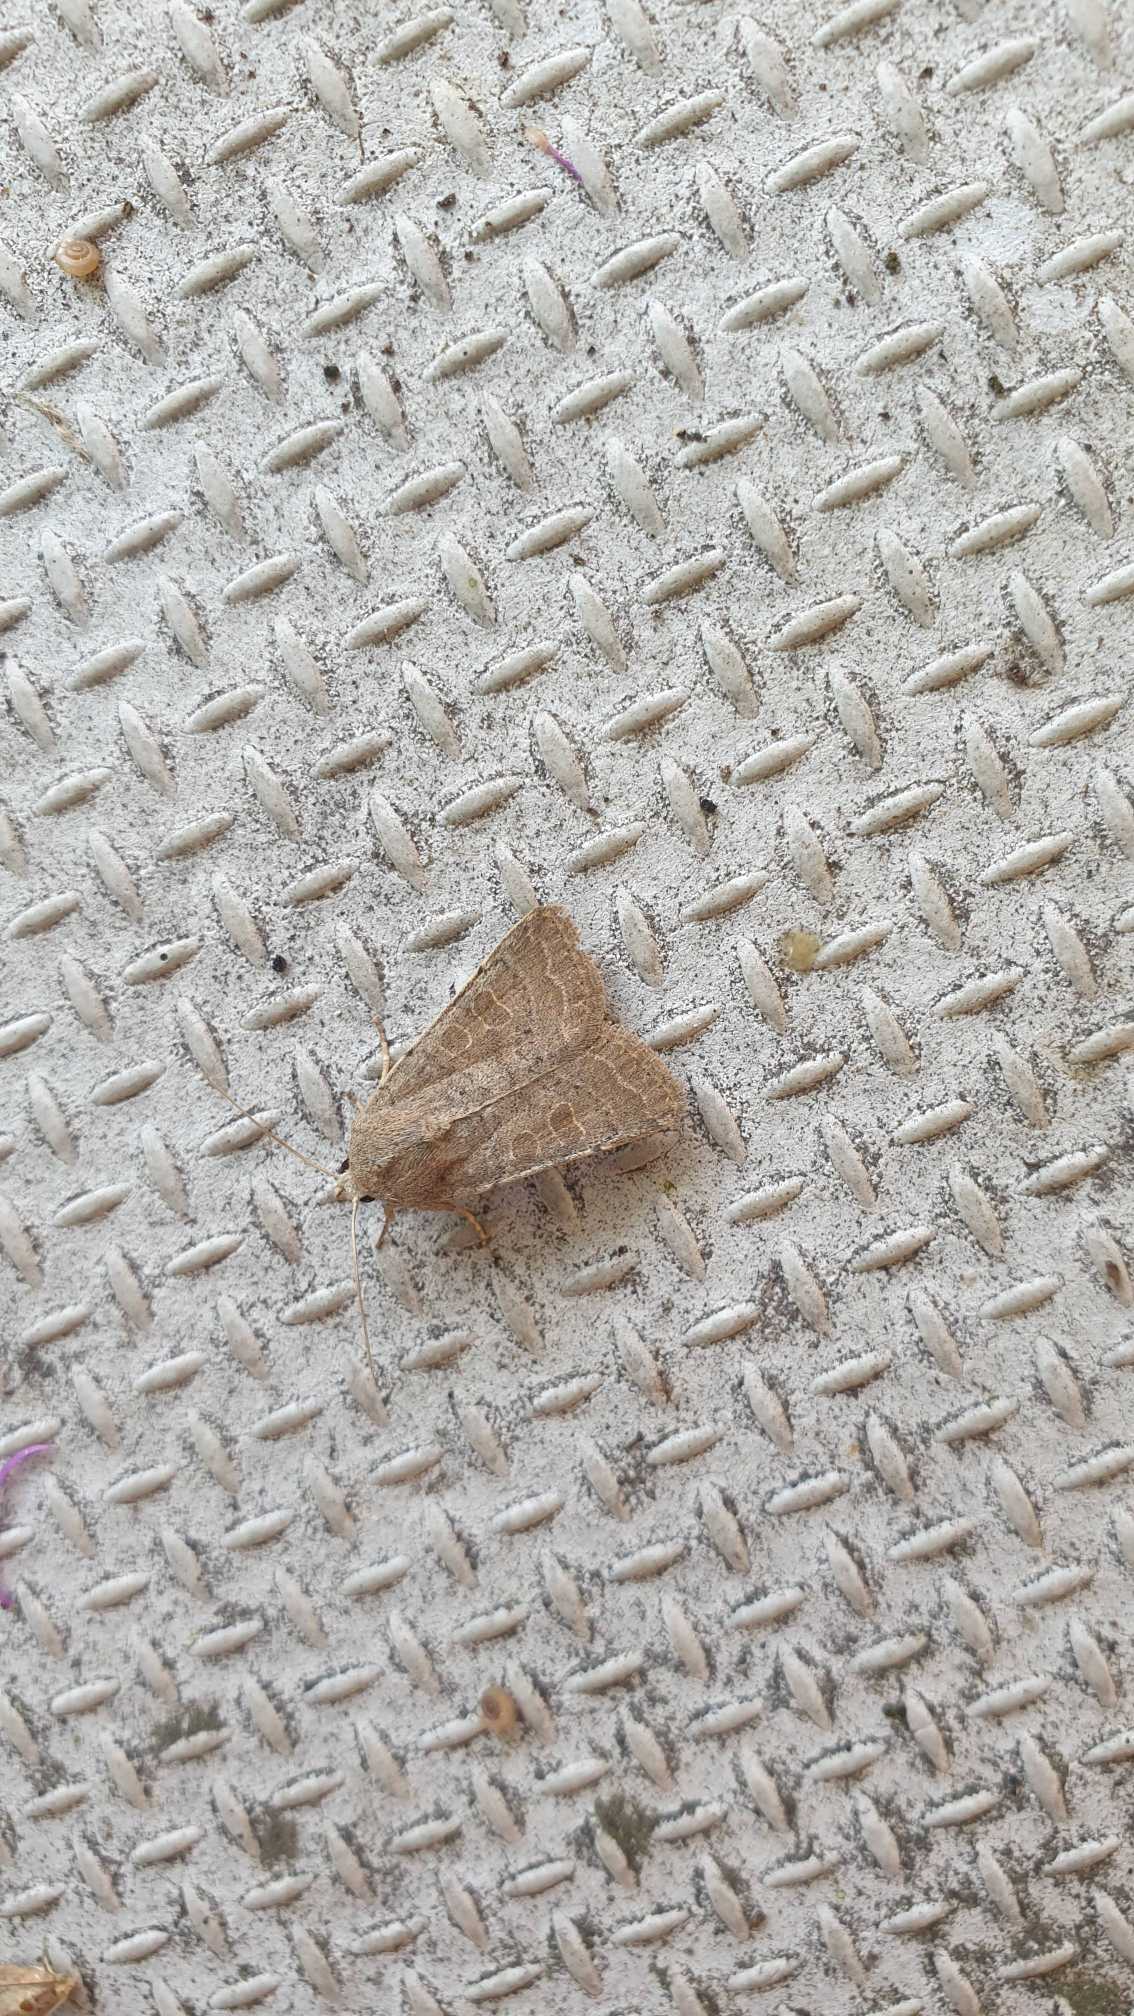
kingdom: Animalia
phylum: Arthropoda
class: Insecta
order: Lepidoptera
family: Noctuidae
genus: Hoplodrina
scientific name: Hoplodrina ambigua
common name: Tvivlsom mus
